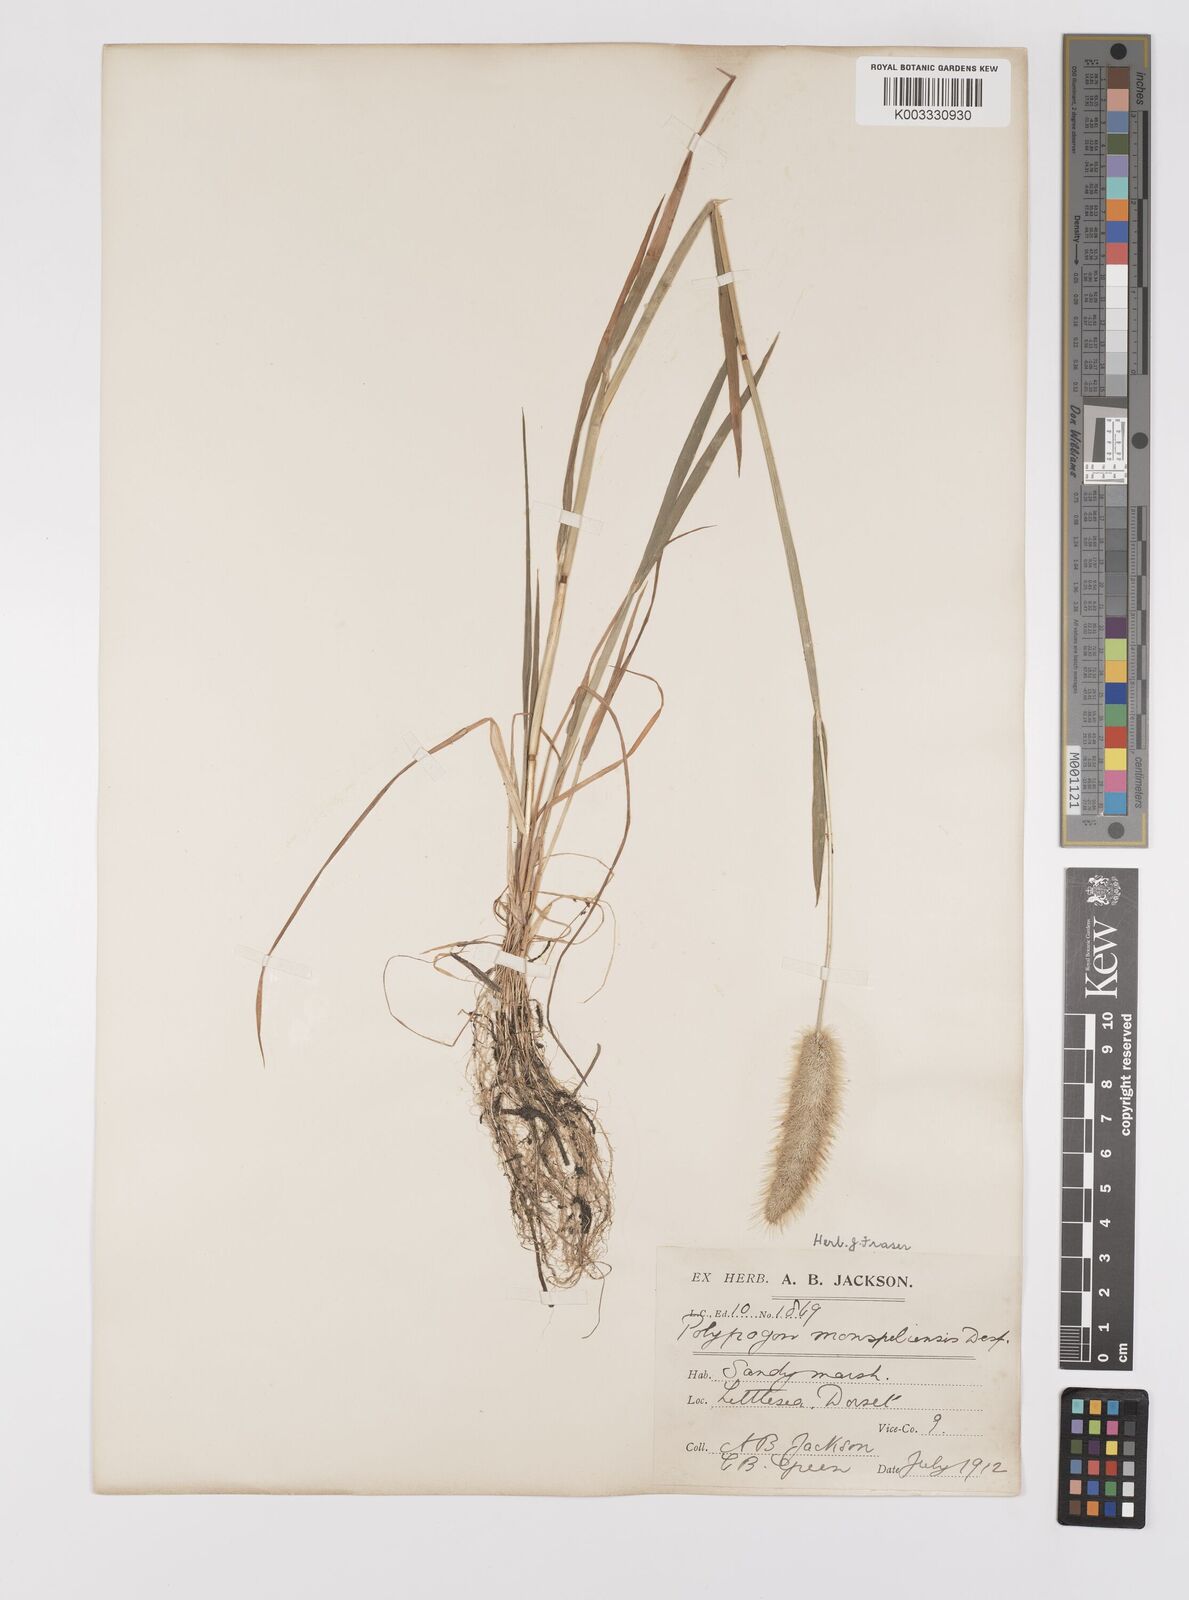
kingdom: Plantae
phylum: Tracheophyta
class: Liliopsida
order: Poales
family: Poaceae
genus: Polypogon
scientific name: Polypogon monspeliensis
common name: Annual rabbitsfoot grass
